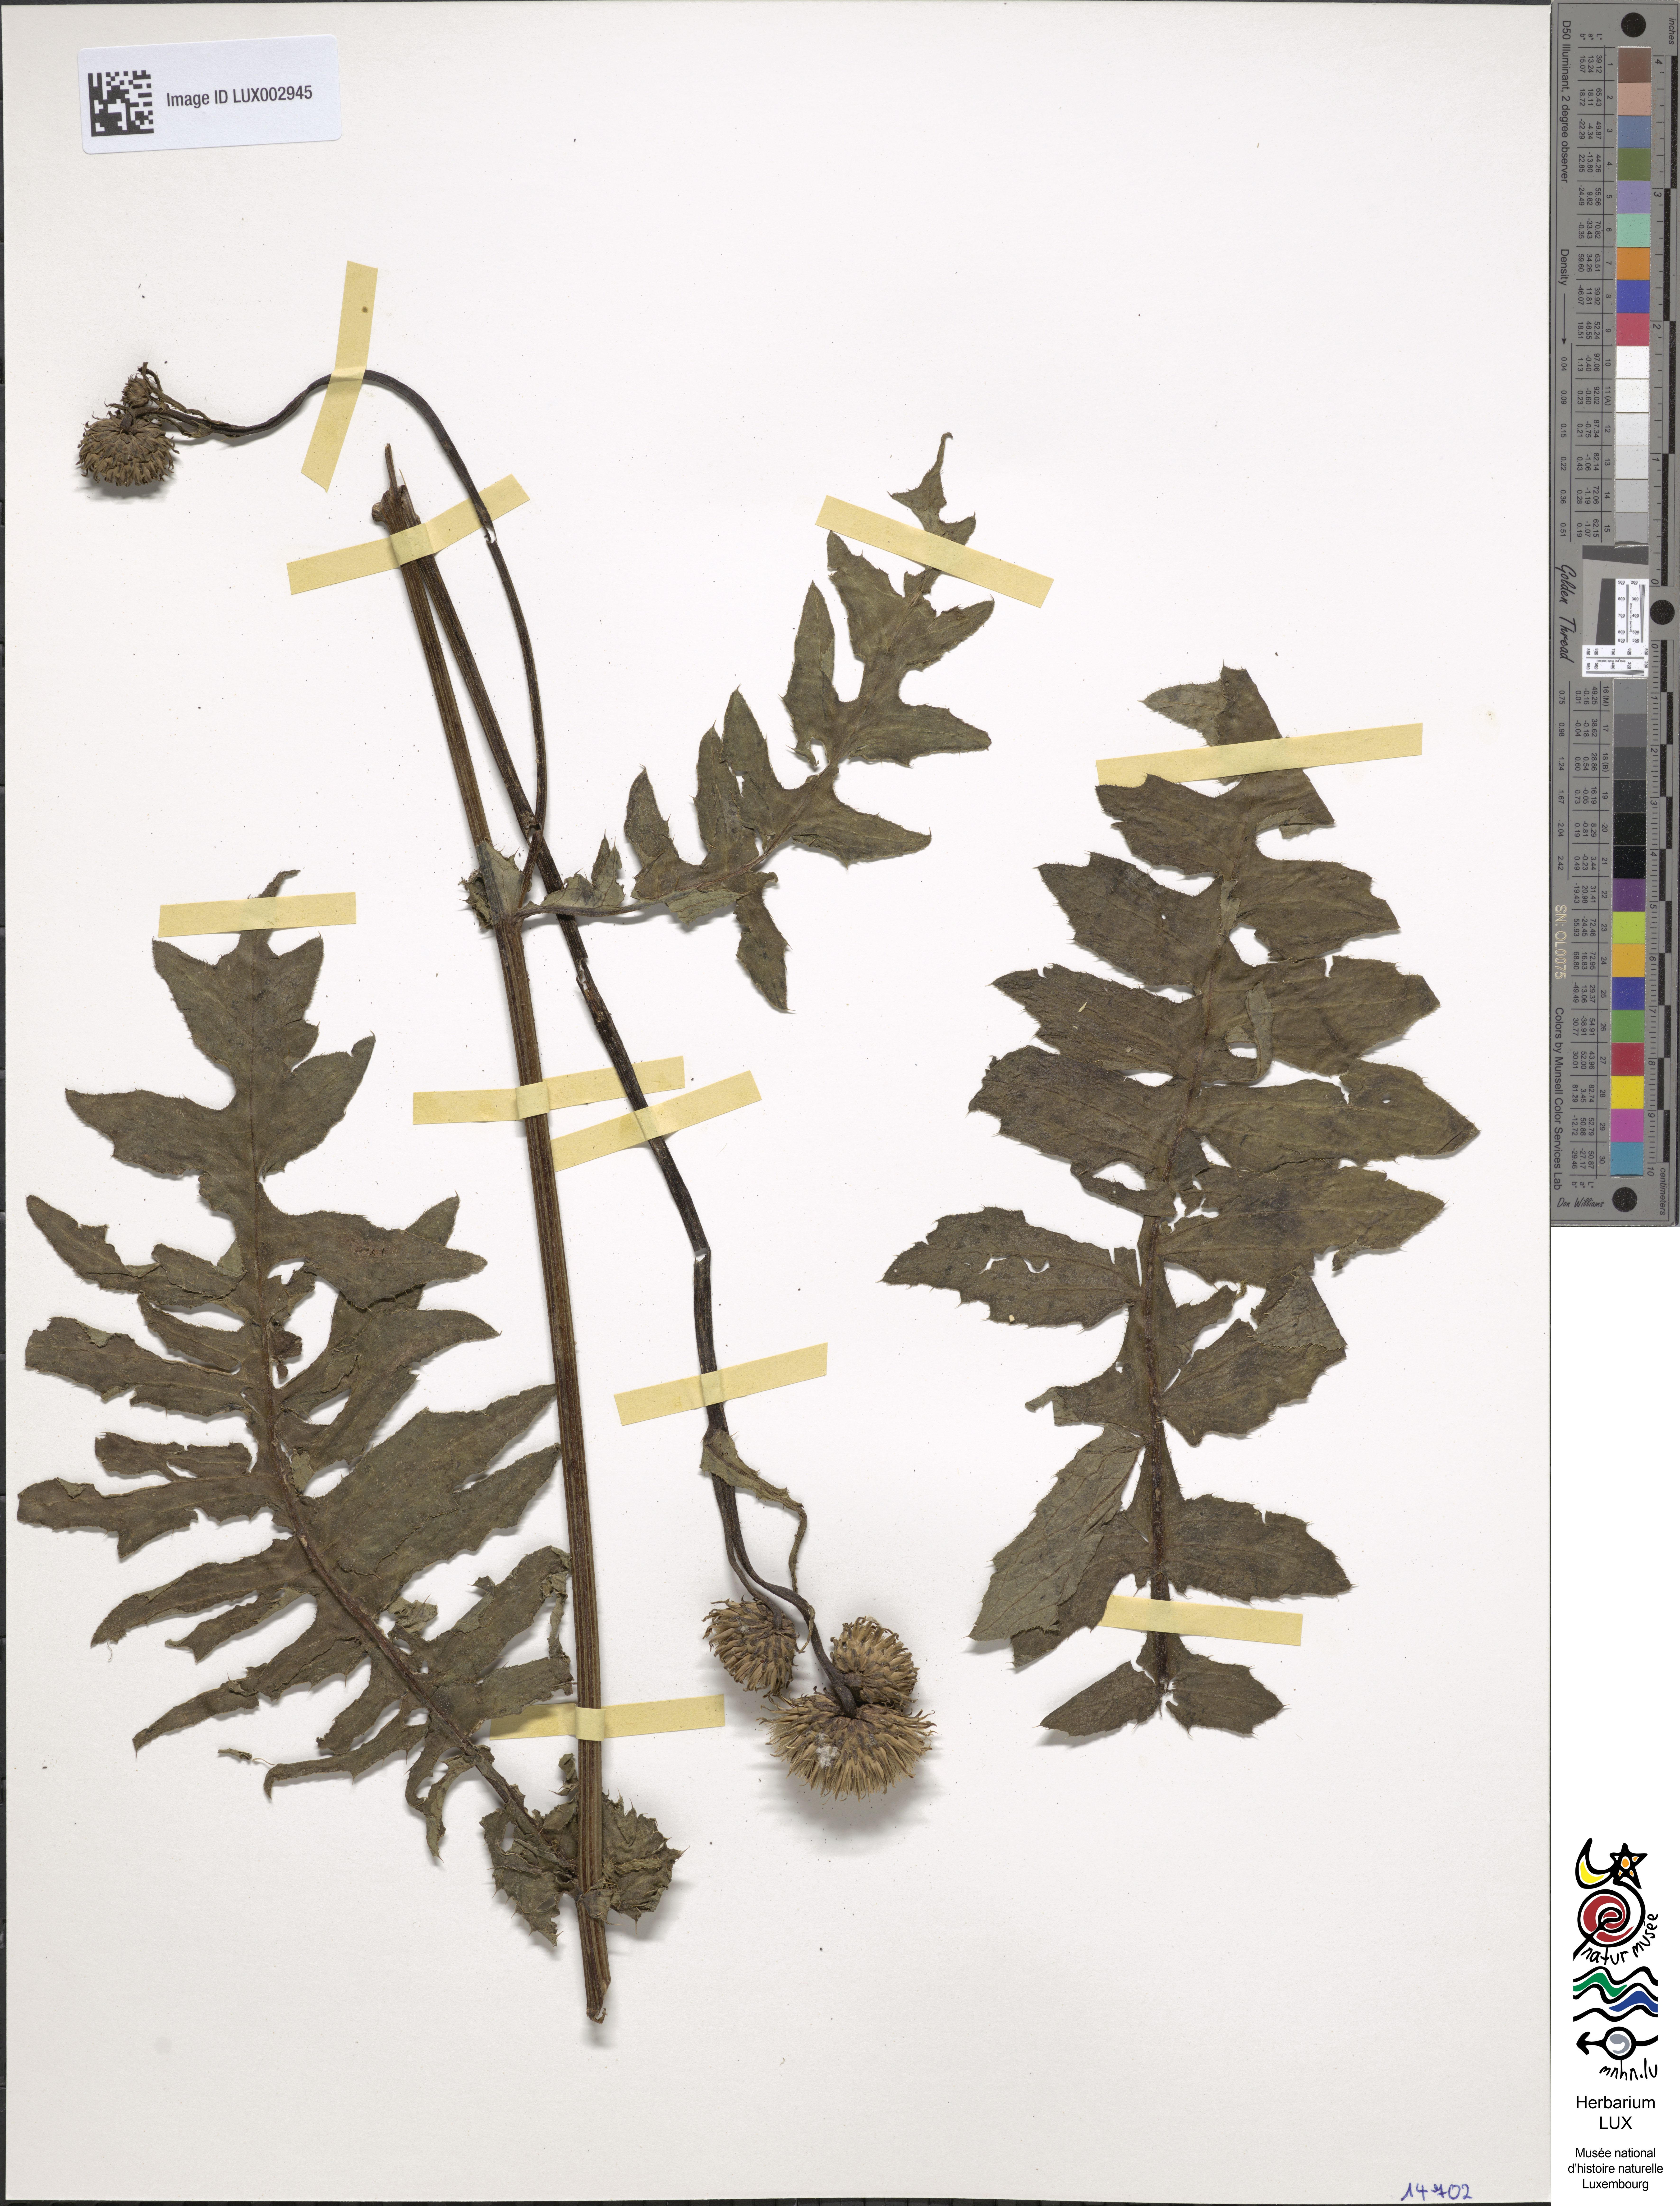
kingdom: Plantae
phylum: Tracheophyta
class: Magnoliopsida
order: Asterales
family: Asteraceae
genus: Cirsium
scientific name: Cirsium erisithales
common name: Yellow thistle
